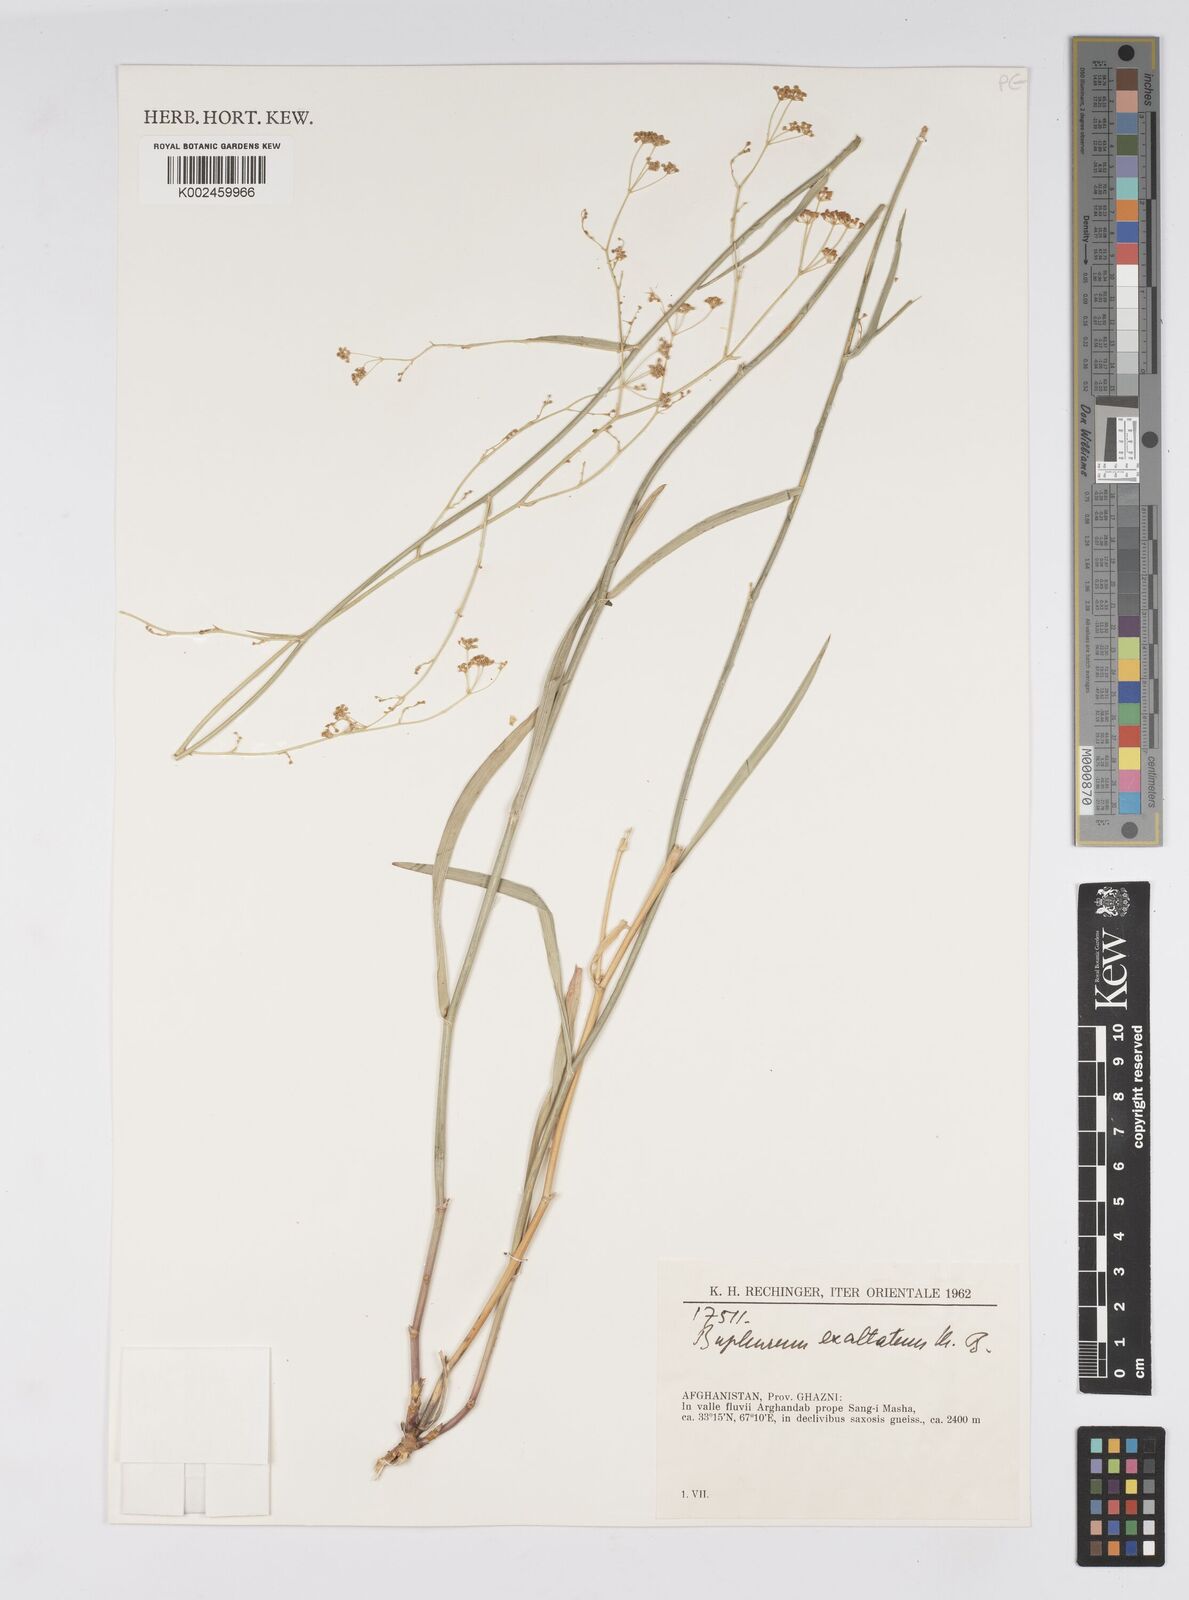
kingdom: Plantae
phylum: Tracheophyta
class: Magnoliopsida
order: Apiales
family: Apiaceae
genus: Bupleurum
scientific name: Bupleurum falcatum
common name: Sickle-leaved hare's-ear
